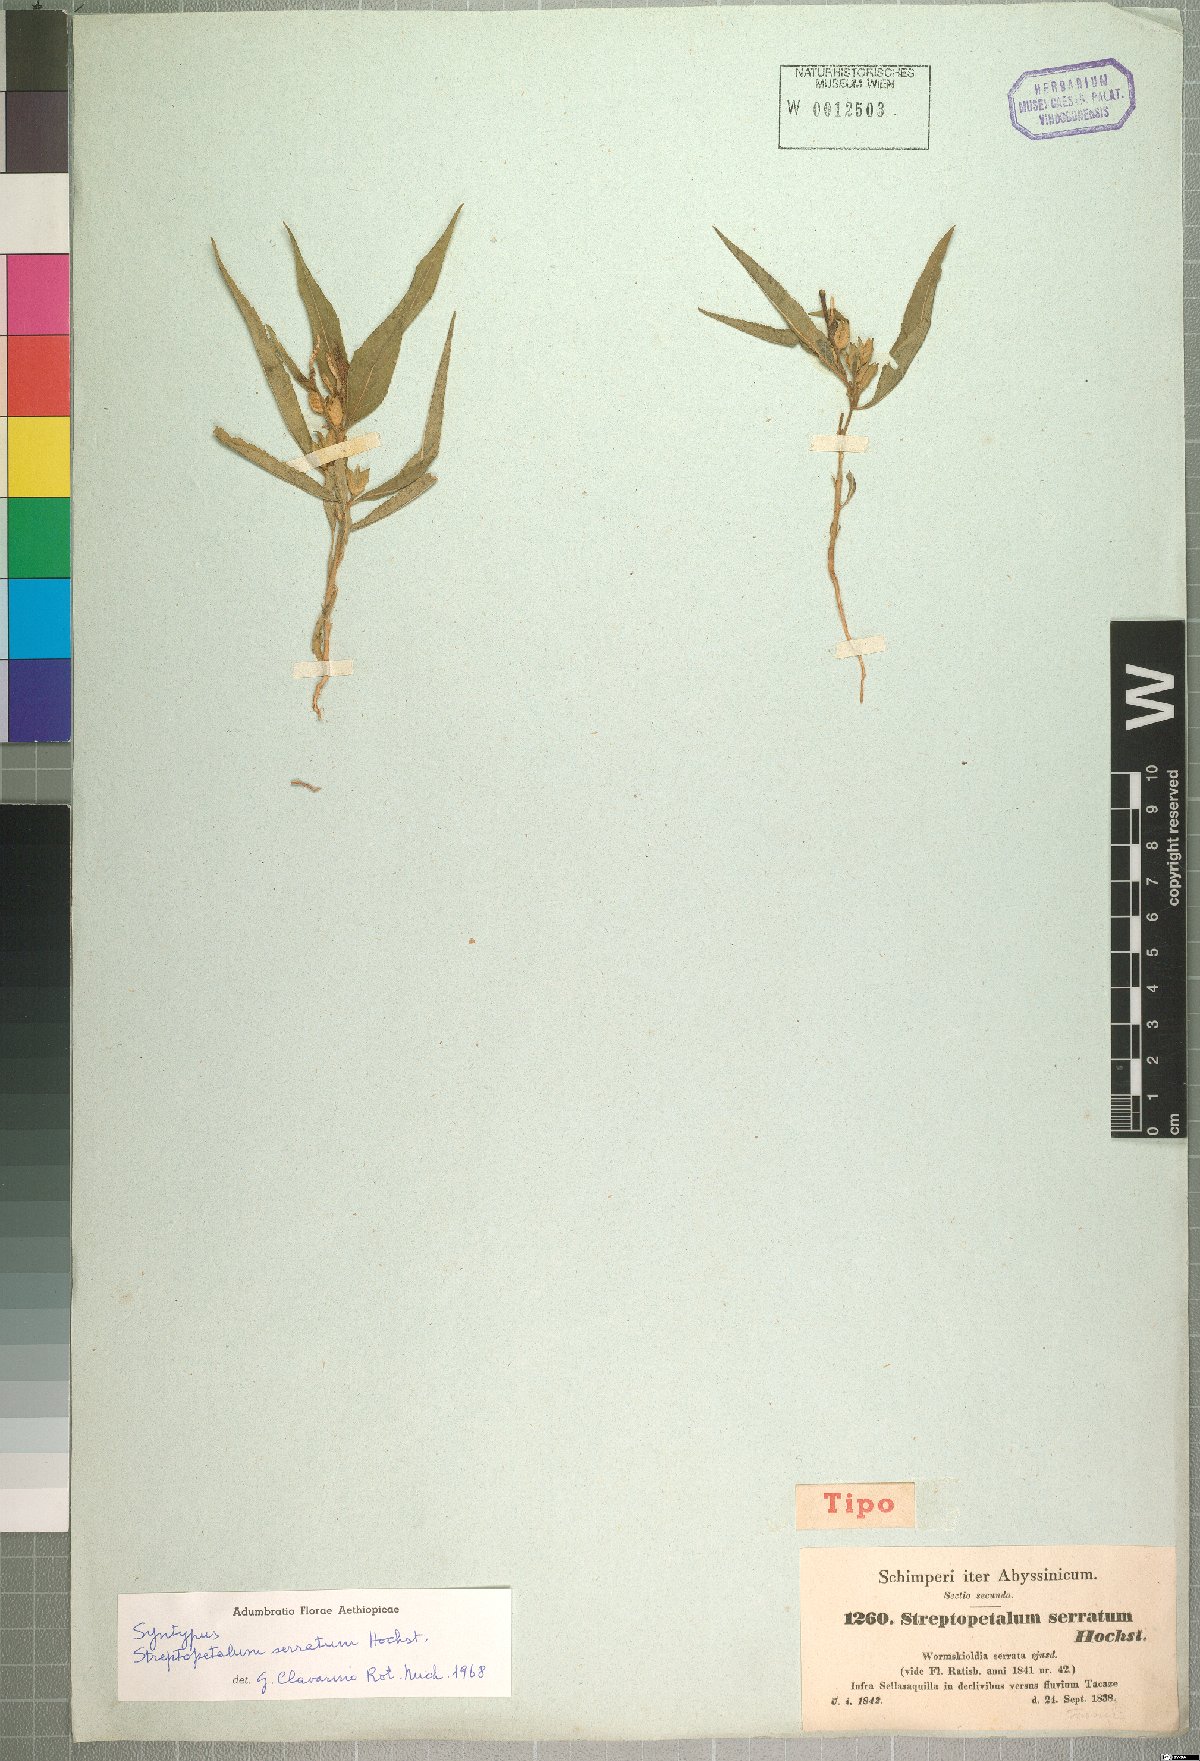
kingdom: Plantae
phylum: Tracheophyta
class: Magnoliopsida
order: Malpighiales
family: Turneraceae
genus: Streptopetalum
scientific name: Streptopetalum serratum
